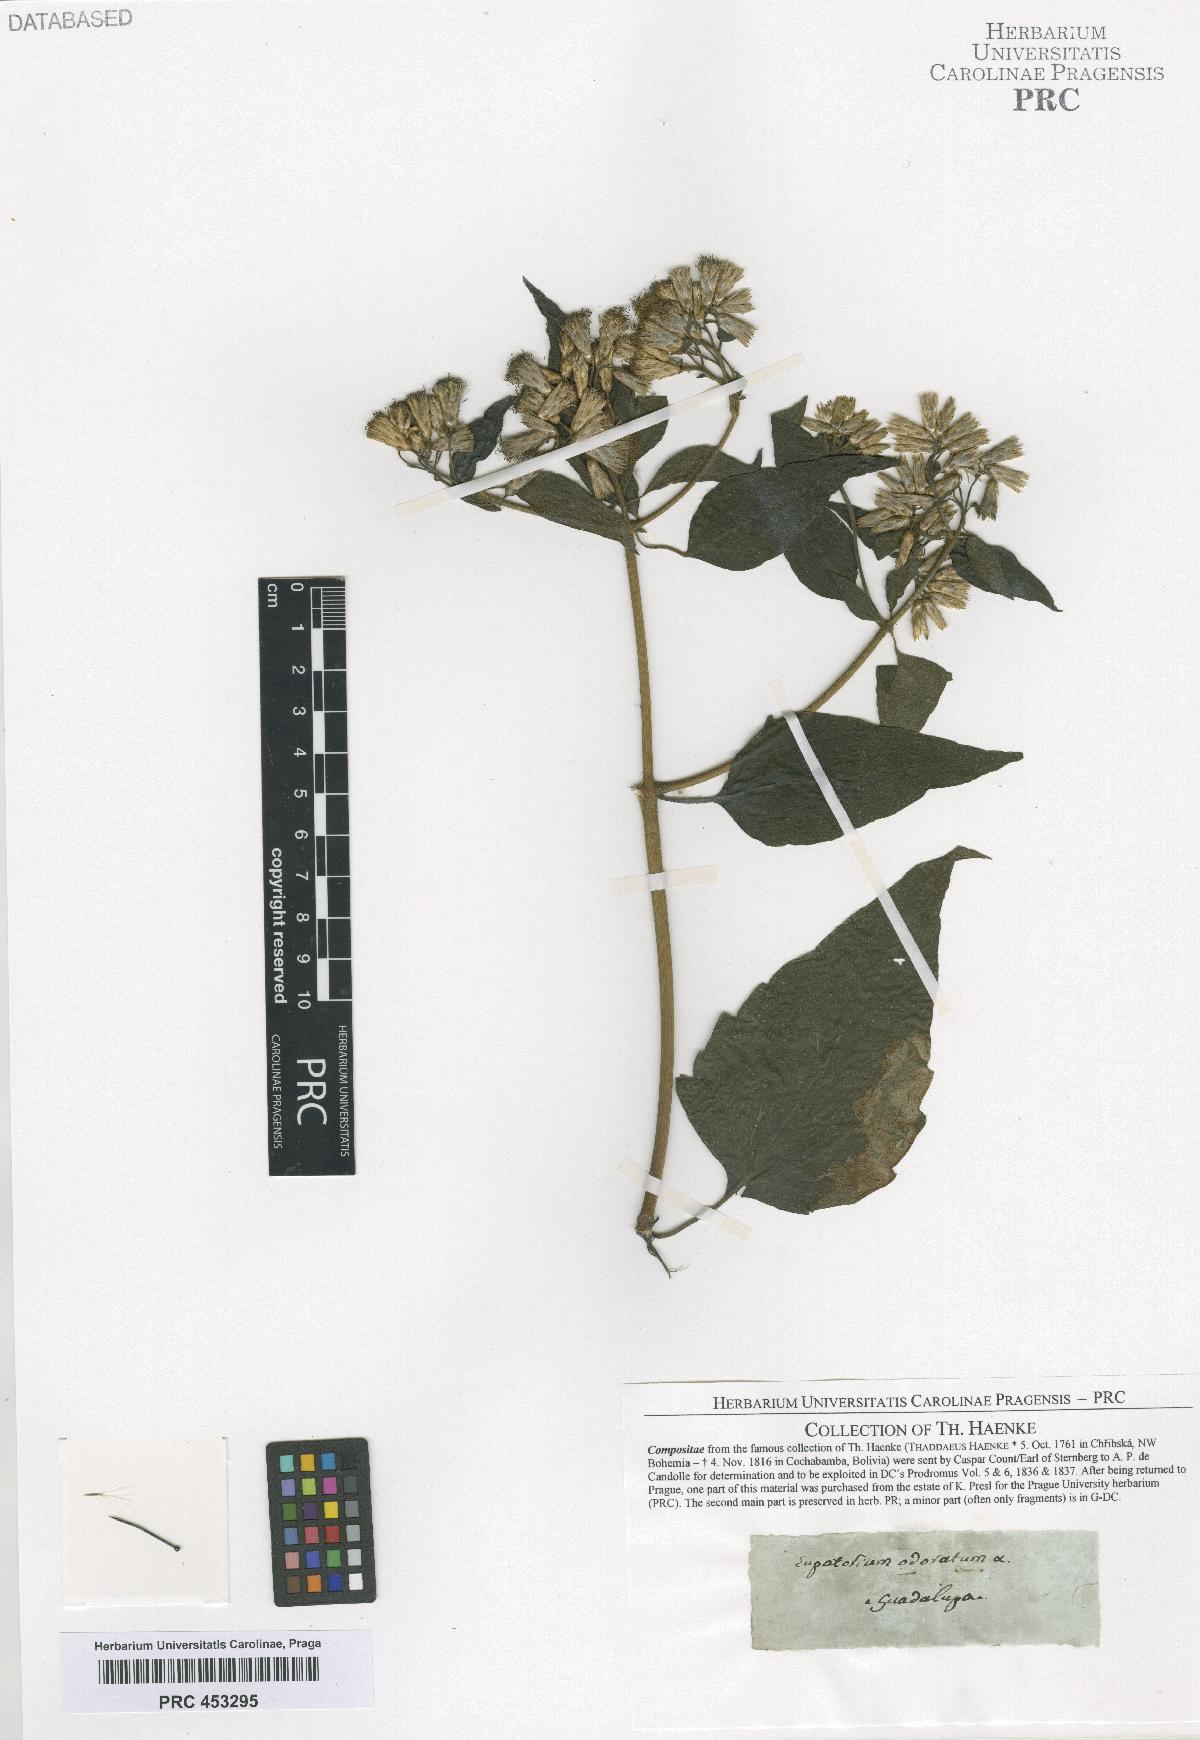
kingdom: Plantae
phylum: Tracheophyta
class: Magnoliopsida
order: Asterales
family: Asteraceae
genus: Chromolaena
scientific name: Chromolaena odorata
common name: Siamweed
